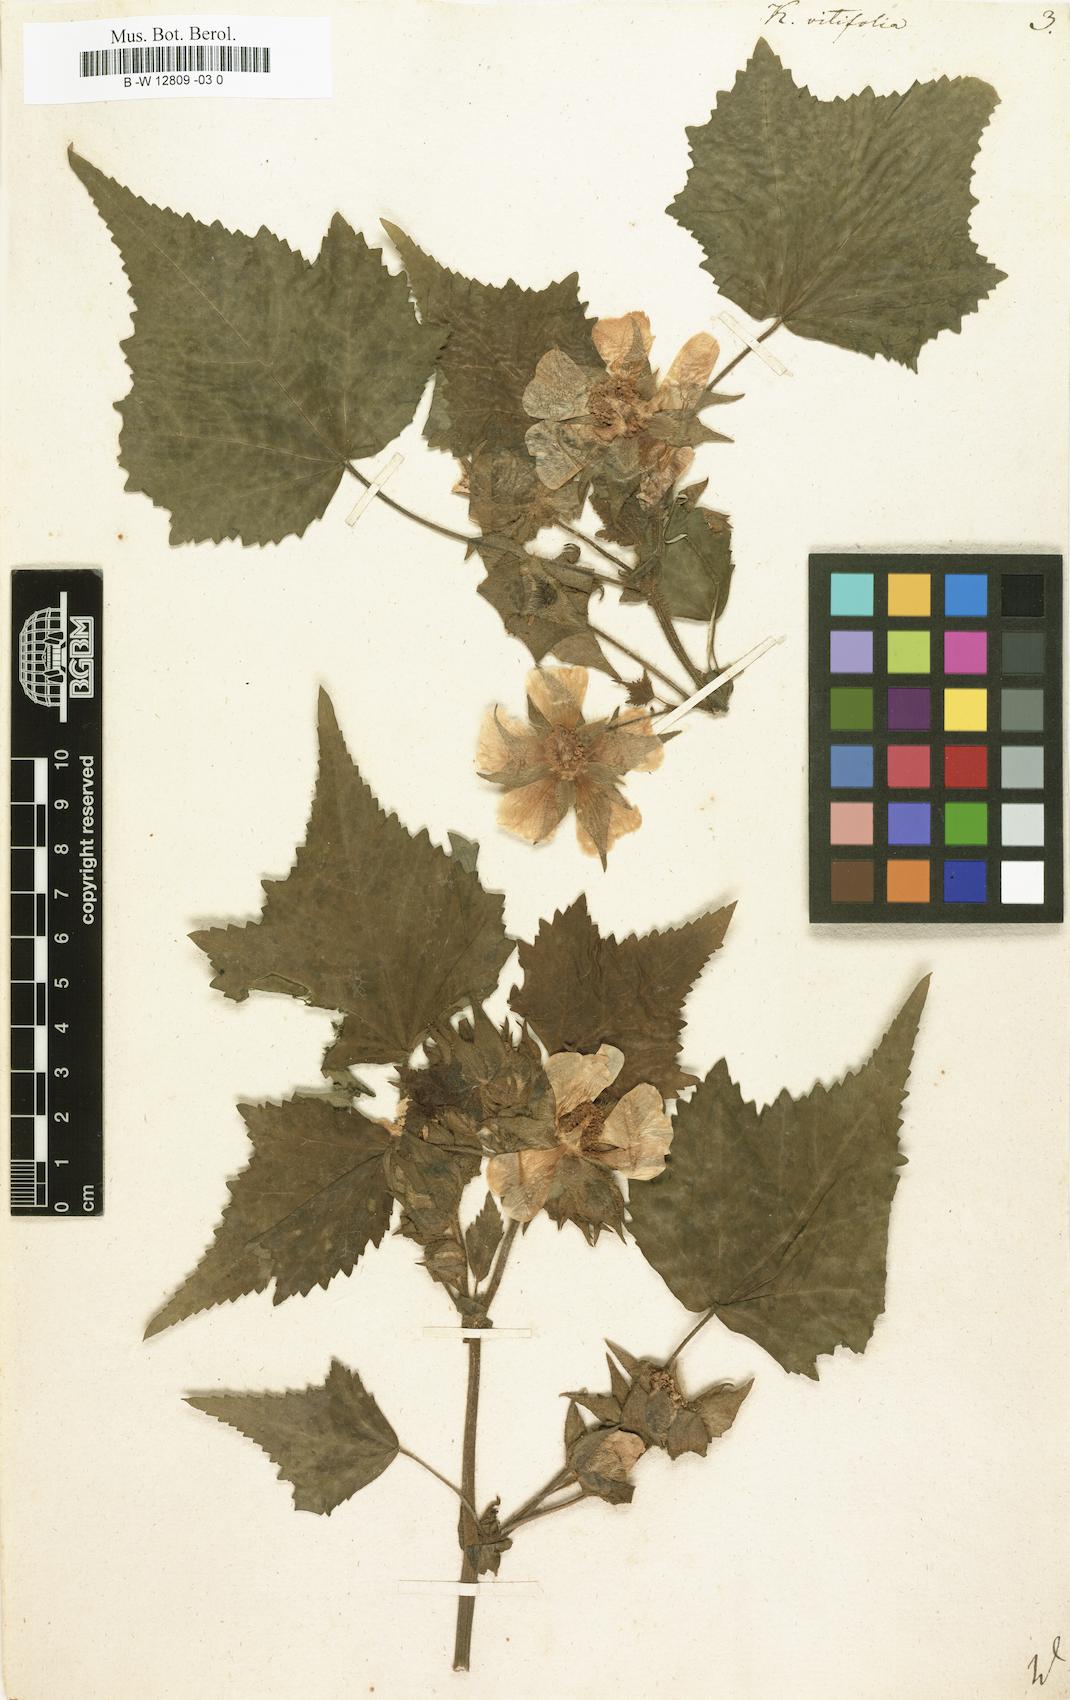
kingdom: Plantae
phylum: Tracheophyta
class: Magnoliopsida
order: Malvales
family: Malvaceae
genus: Kitaibela
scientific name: Kitaibela vitifolia
